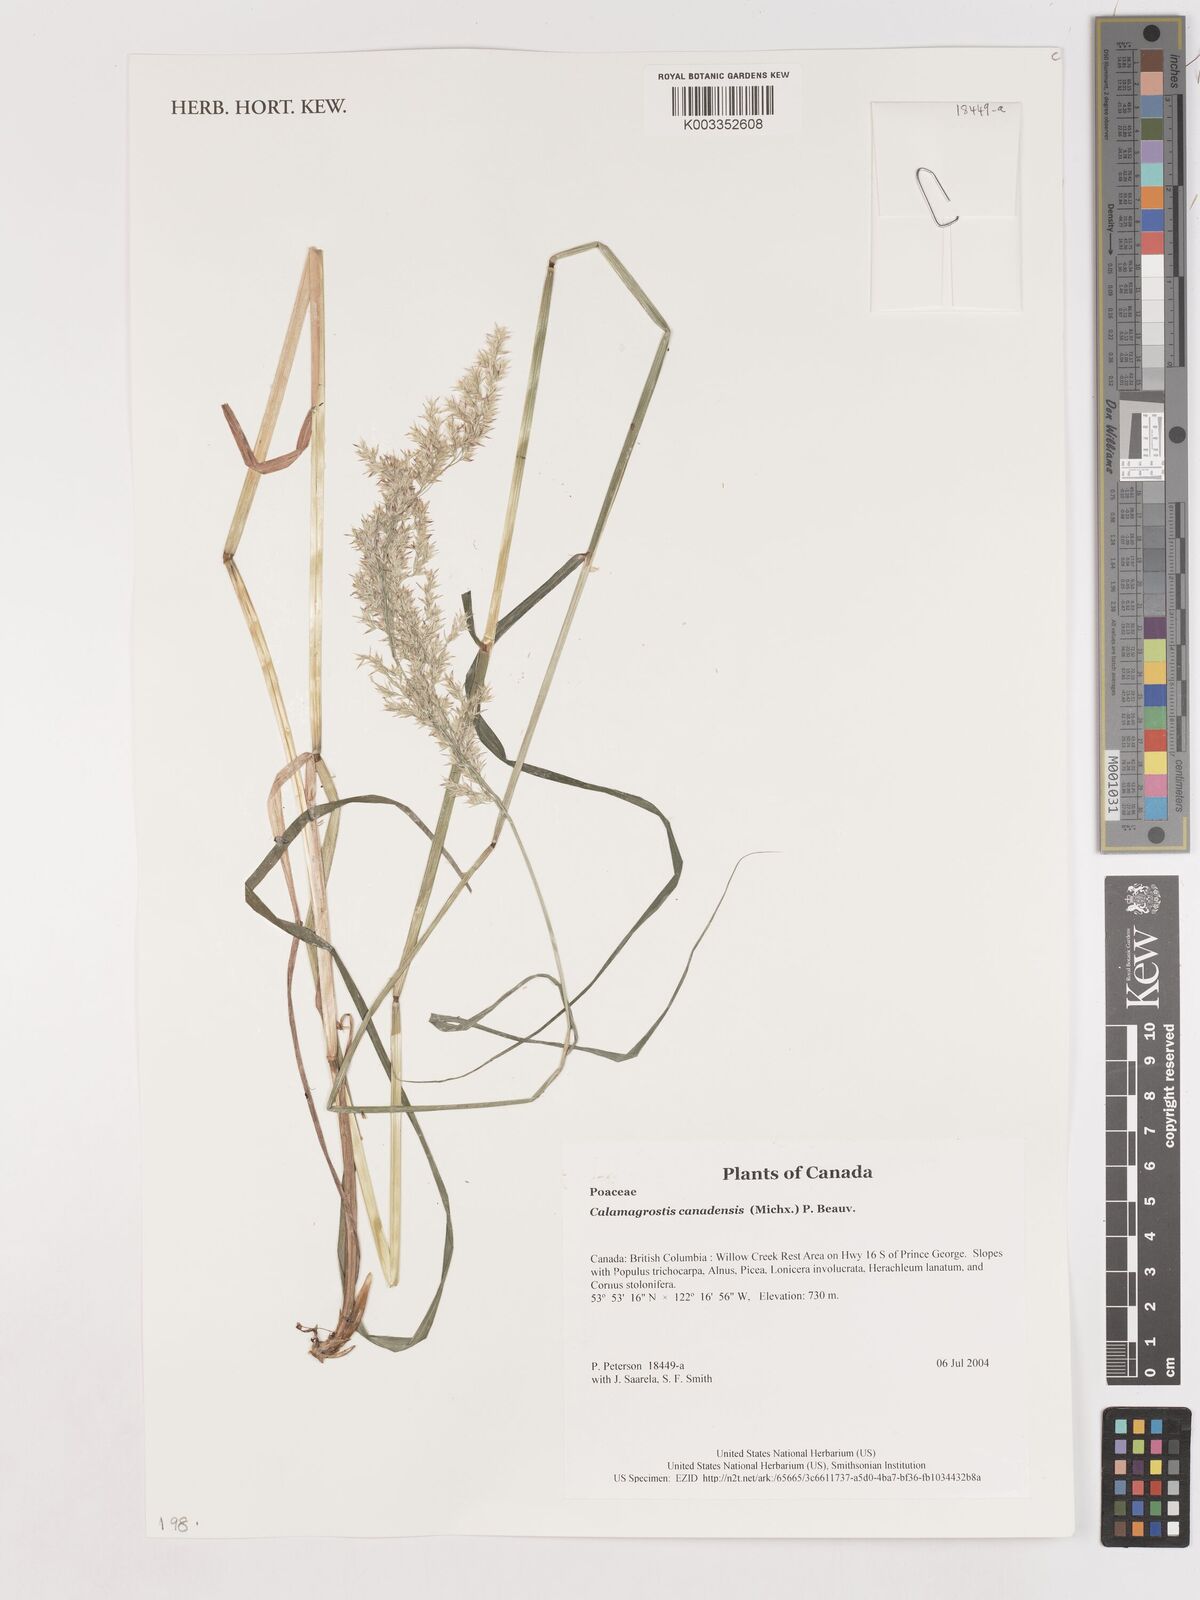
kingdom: Plantae
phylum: Tracheophyta
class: Liliopsida
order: Poales
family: Poaceae
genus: Calamagrostis
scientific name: Calamagrostis canadensis
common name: Canada bluejoint
